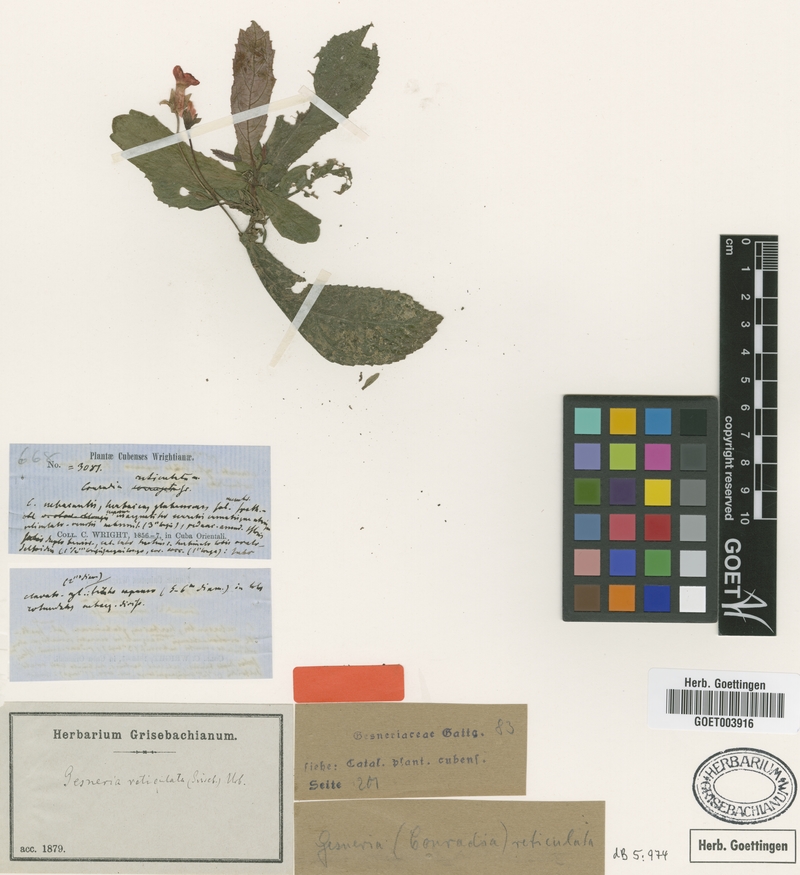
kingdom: Plantae
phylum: Tracheophyta
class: Magnoliopsida
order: Lamiales
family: Gesneriaceae
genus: Gesneria
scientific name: Gesneria reticulata
